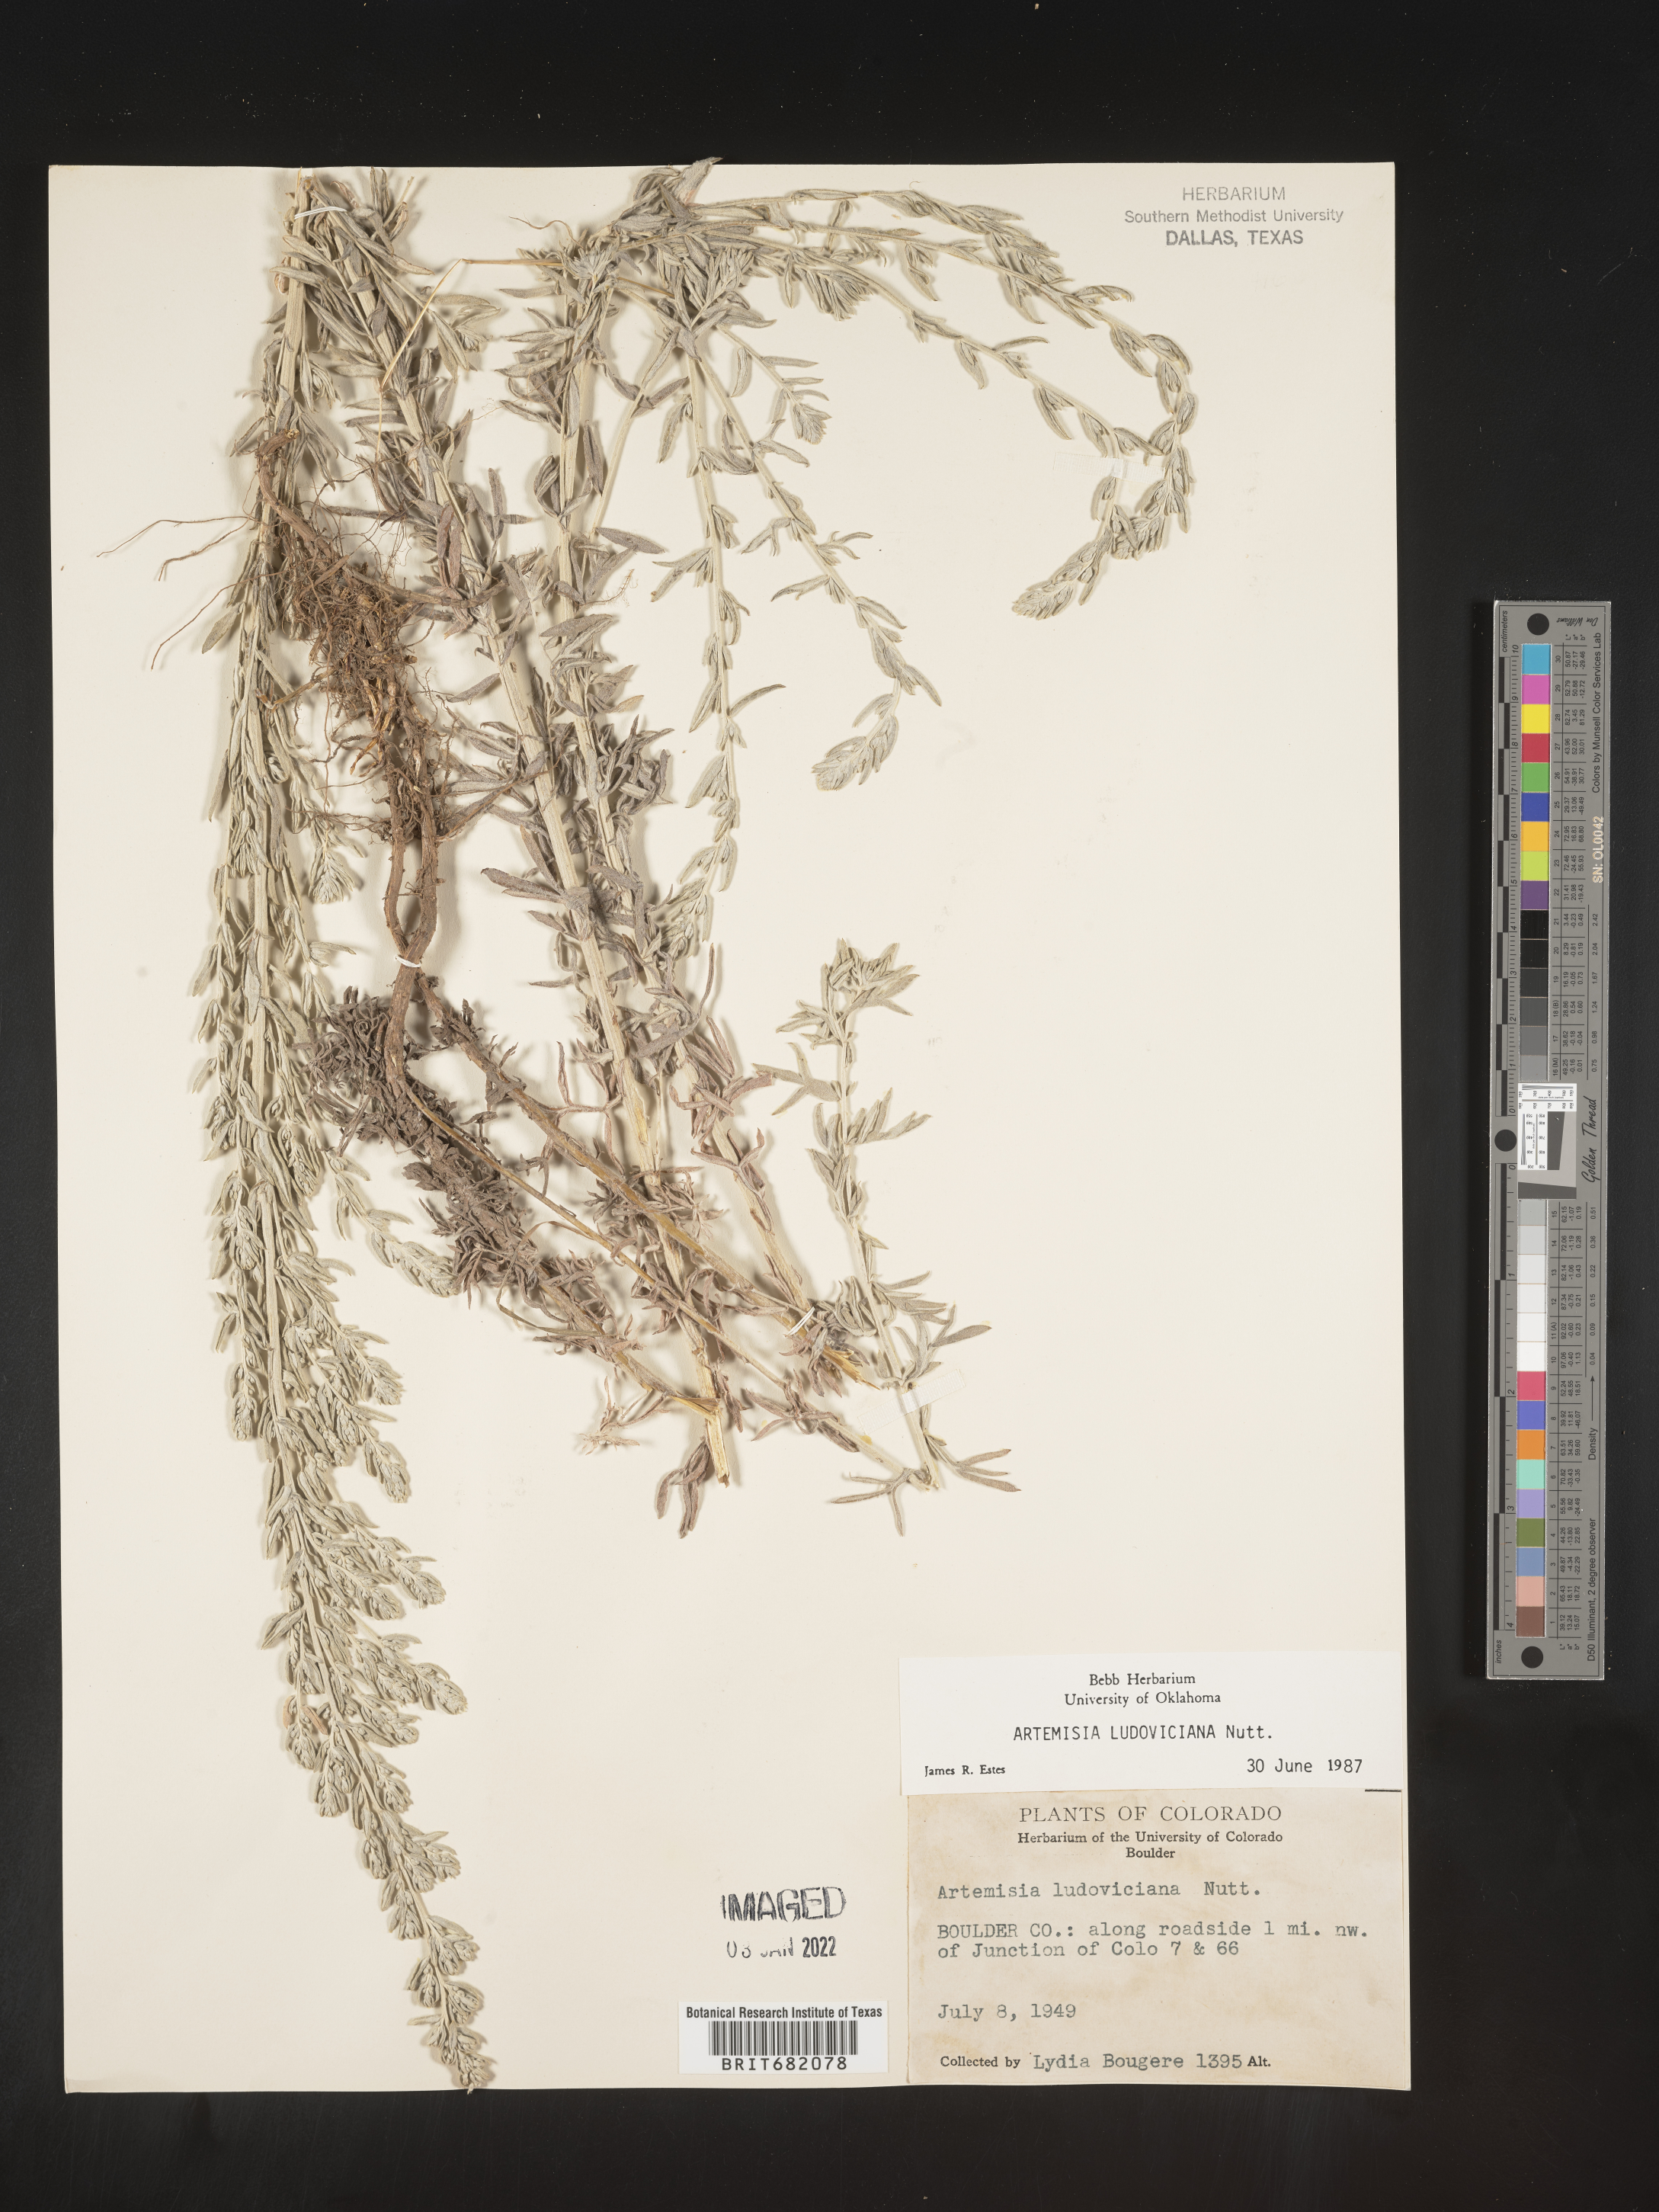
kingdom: Plantae
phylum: Tracheophyta
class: Magnoliopsida
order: Asterales
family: Asteraceae
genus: Artemisia
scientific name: Artemisia ludoviciana
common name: Western mugwort
